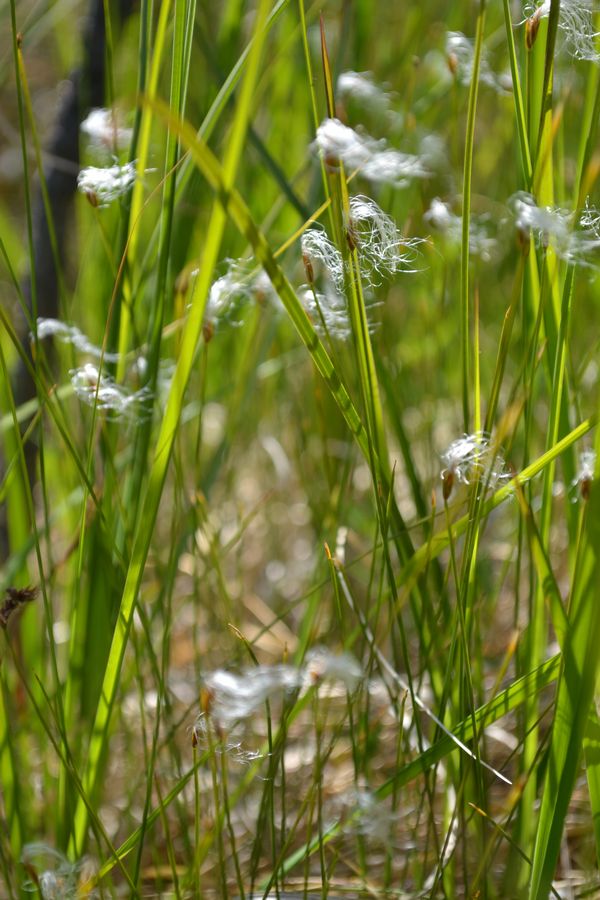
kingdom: Plantae
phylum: Tracheophyta
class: Liliopsida
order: Poales
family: Cyperaceae
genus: Trichophorum
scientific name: Trichophorum alpinum
